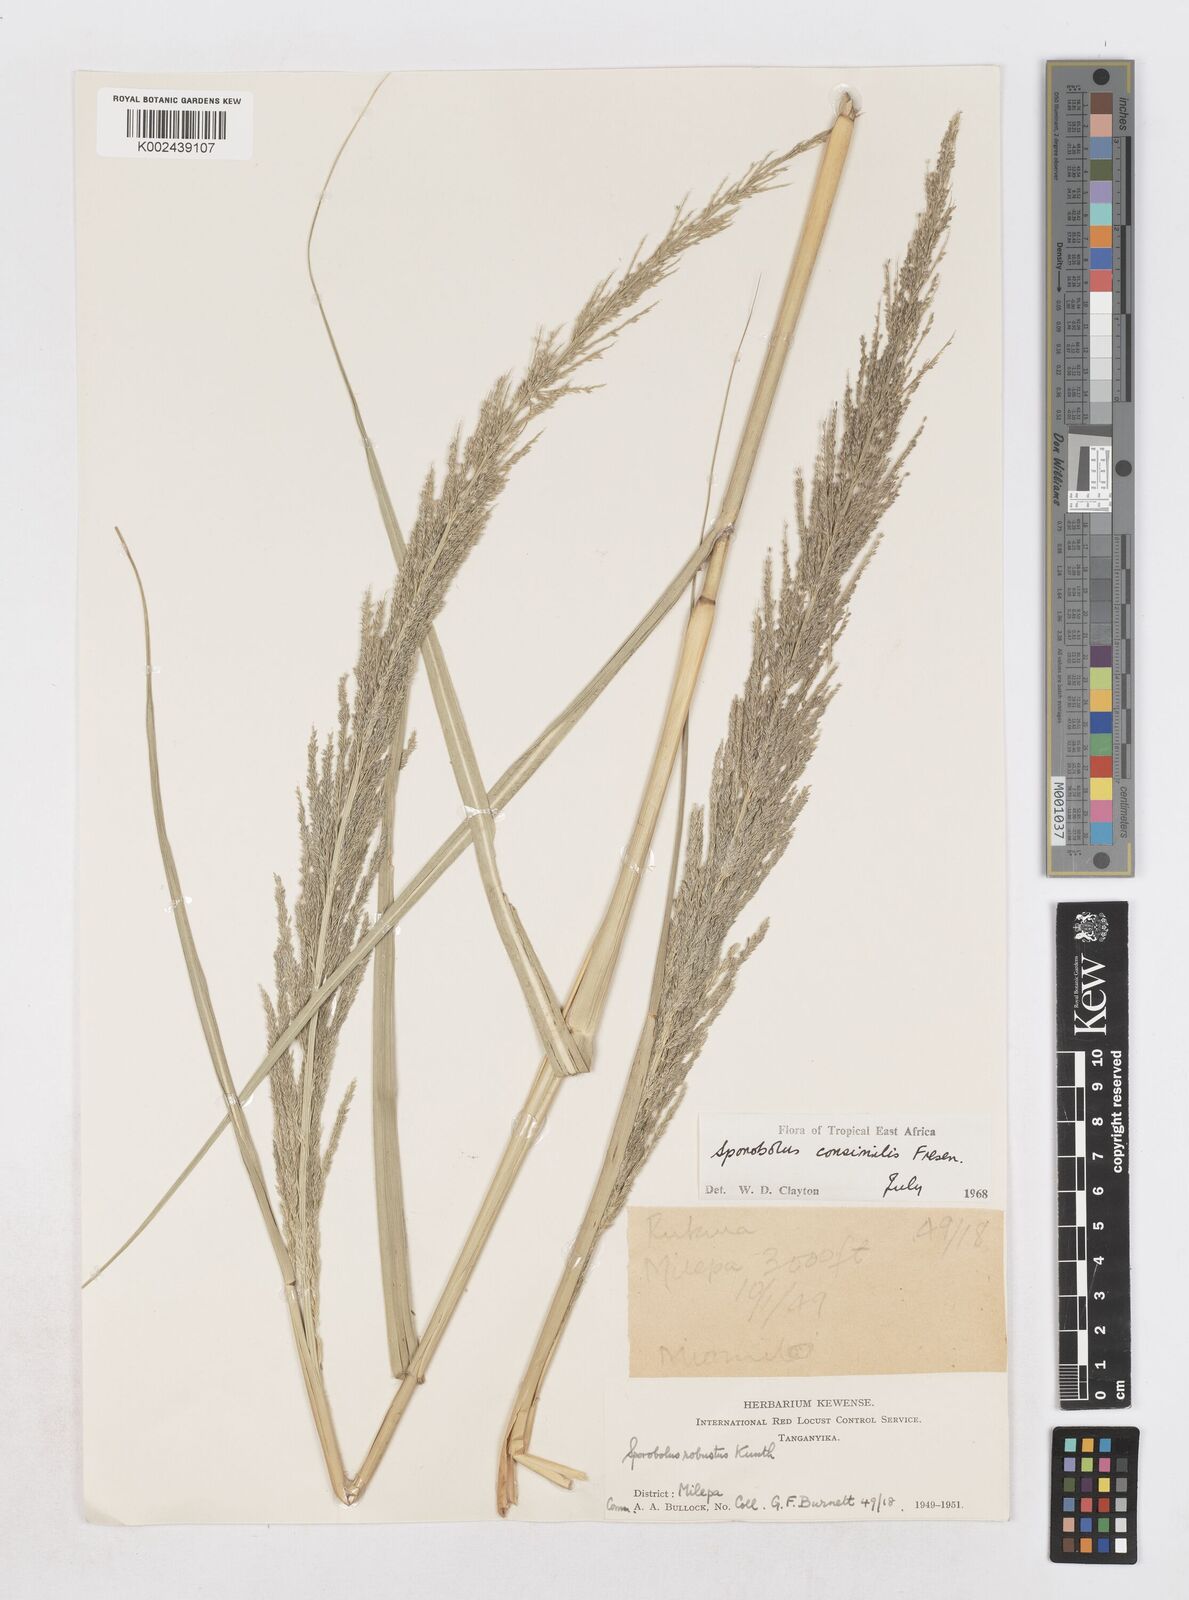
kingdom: Plantae
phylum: Tracheophyta
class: Liliopsida
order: Poales
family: Poaceae
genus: Sporobolus
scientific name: Sporobolus consimilis
